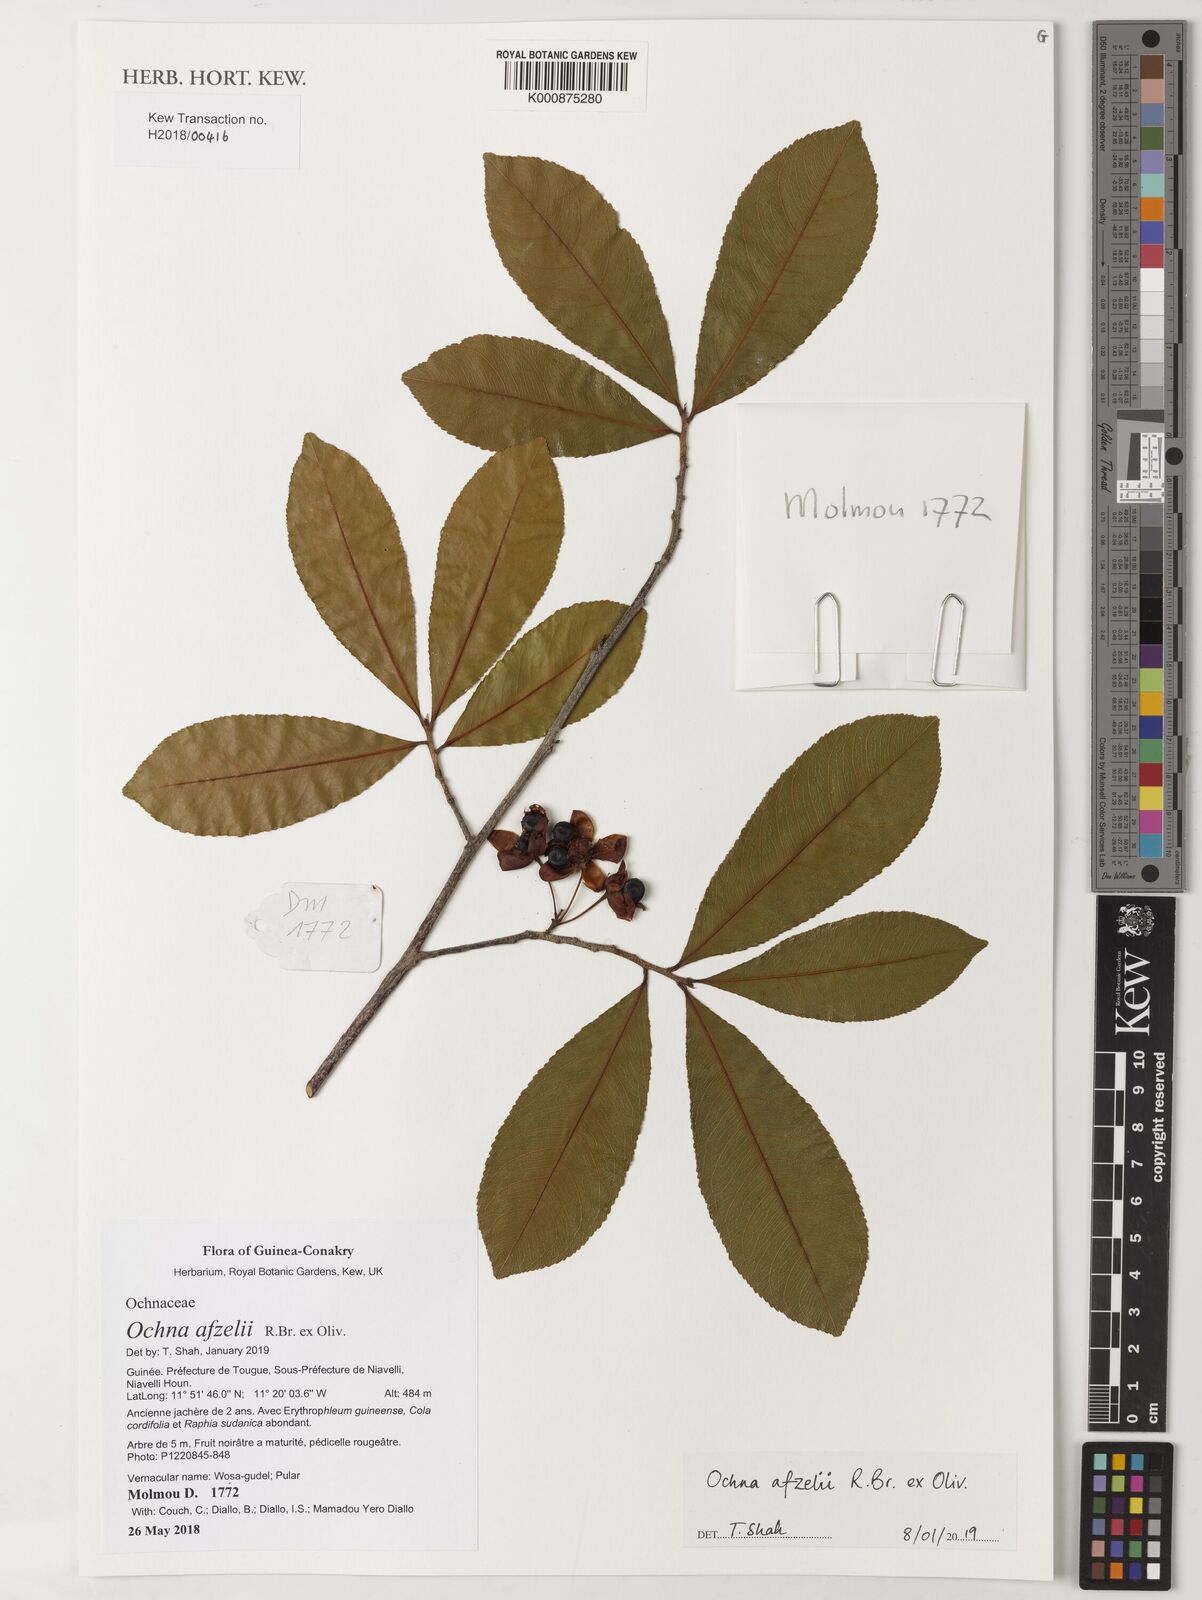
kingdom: Plantae
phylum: Tracheophyta
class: Magnoliopsida
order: Malpighiales
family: Ochnaceae
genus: Ochna
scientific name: Ochna afzelii
